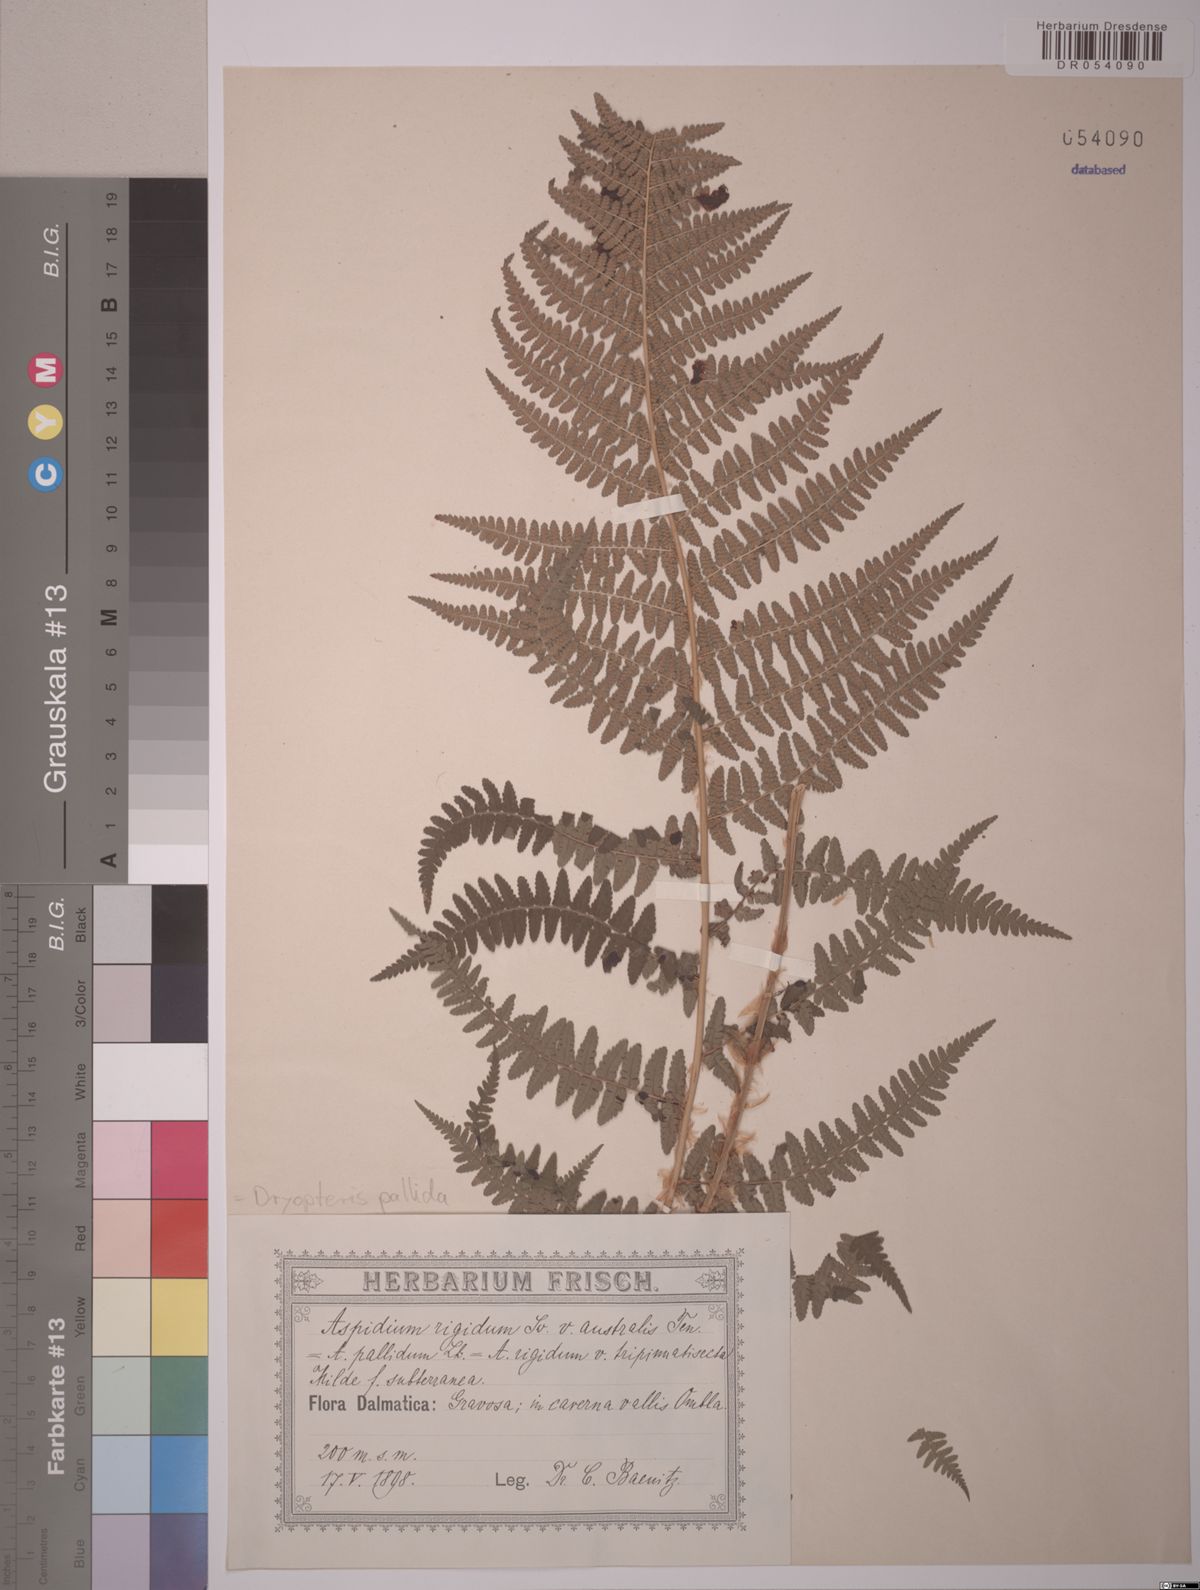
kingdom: Plantae
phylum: Tracheophyta
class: Polypodiopsida
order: Polypodiales
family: Dryopteridaceae
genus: Dryopteris
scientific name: Dryopteris pallida
